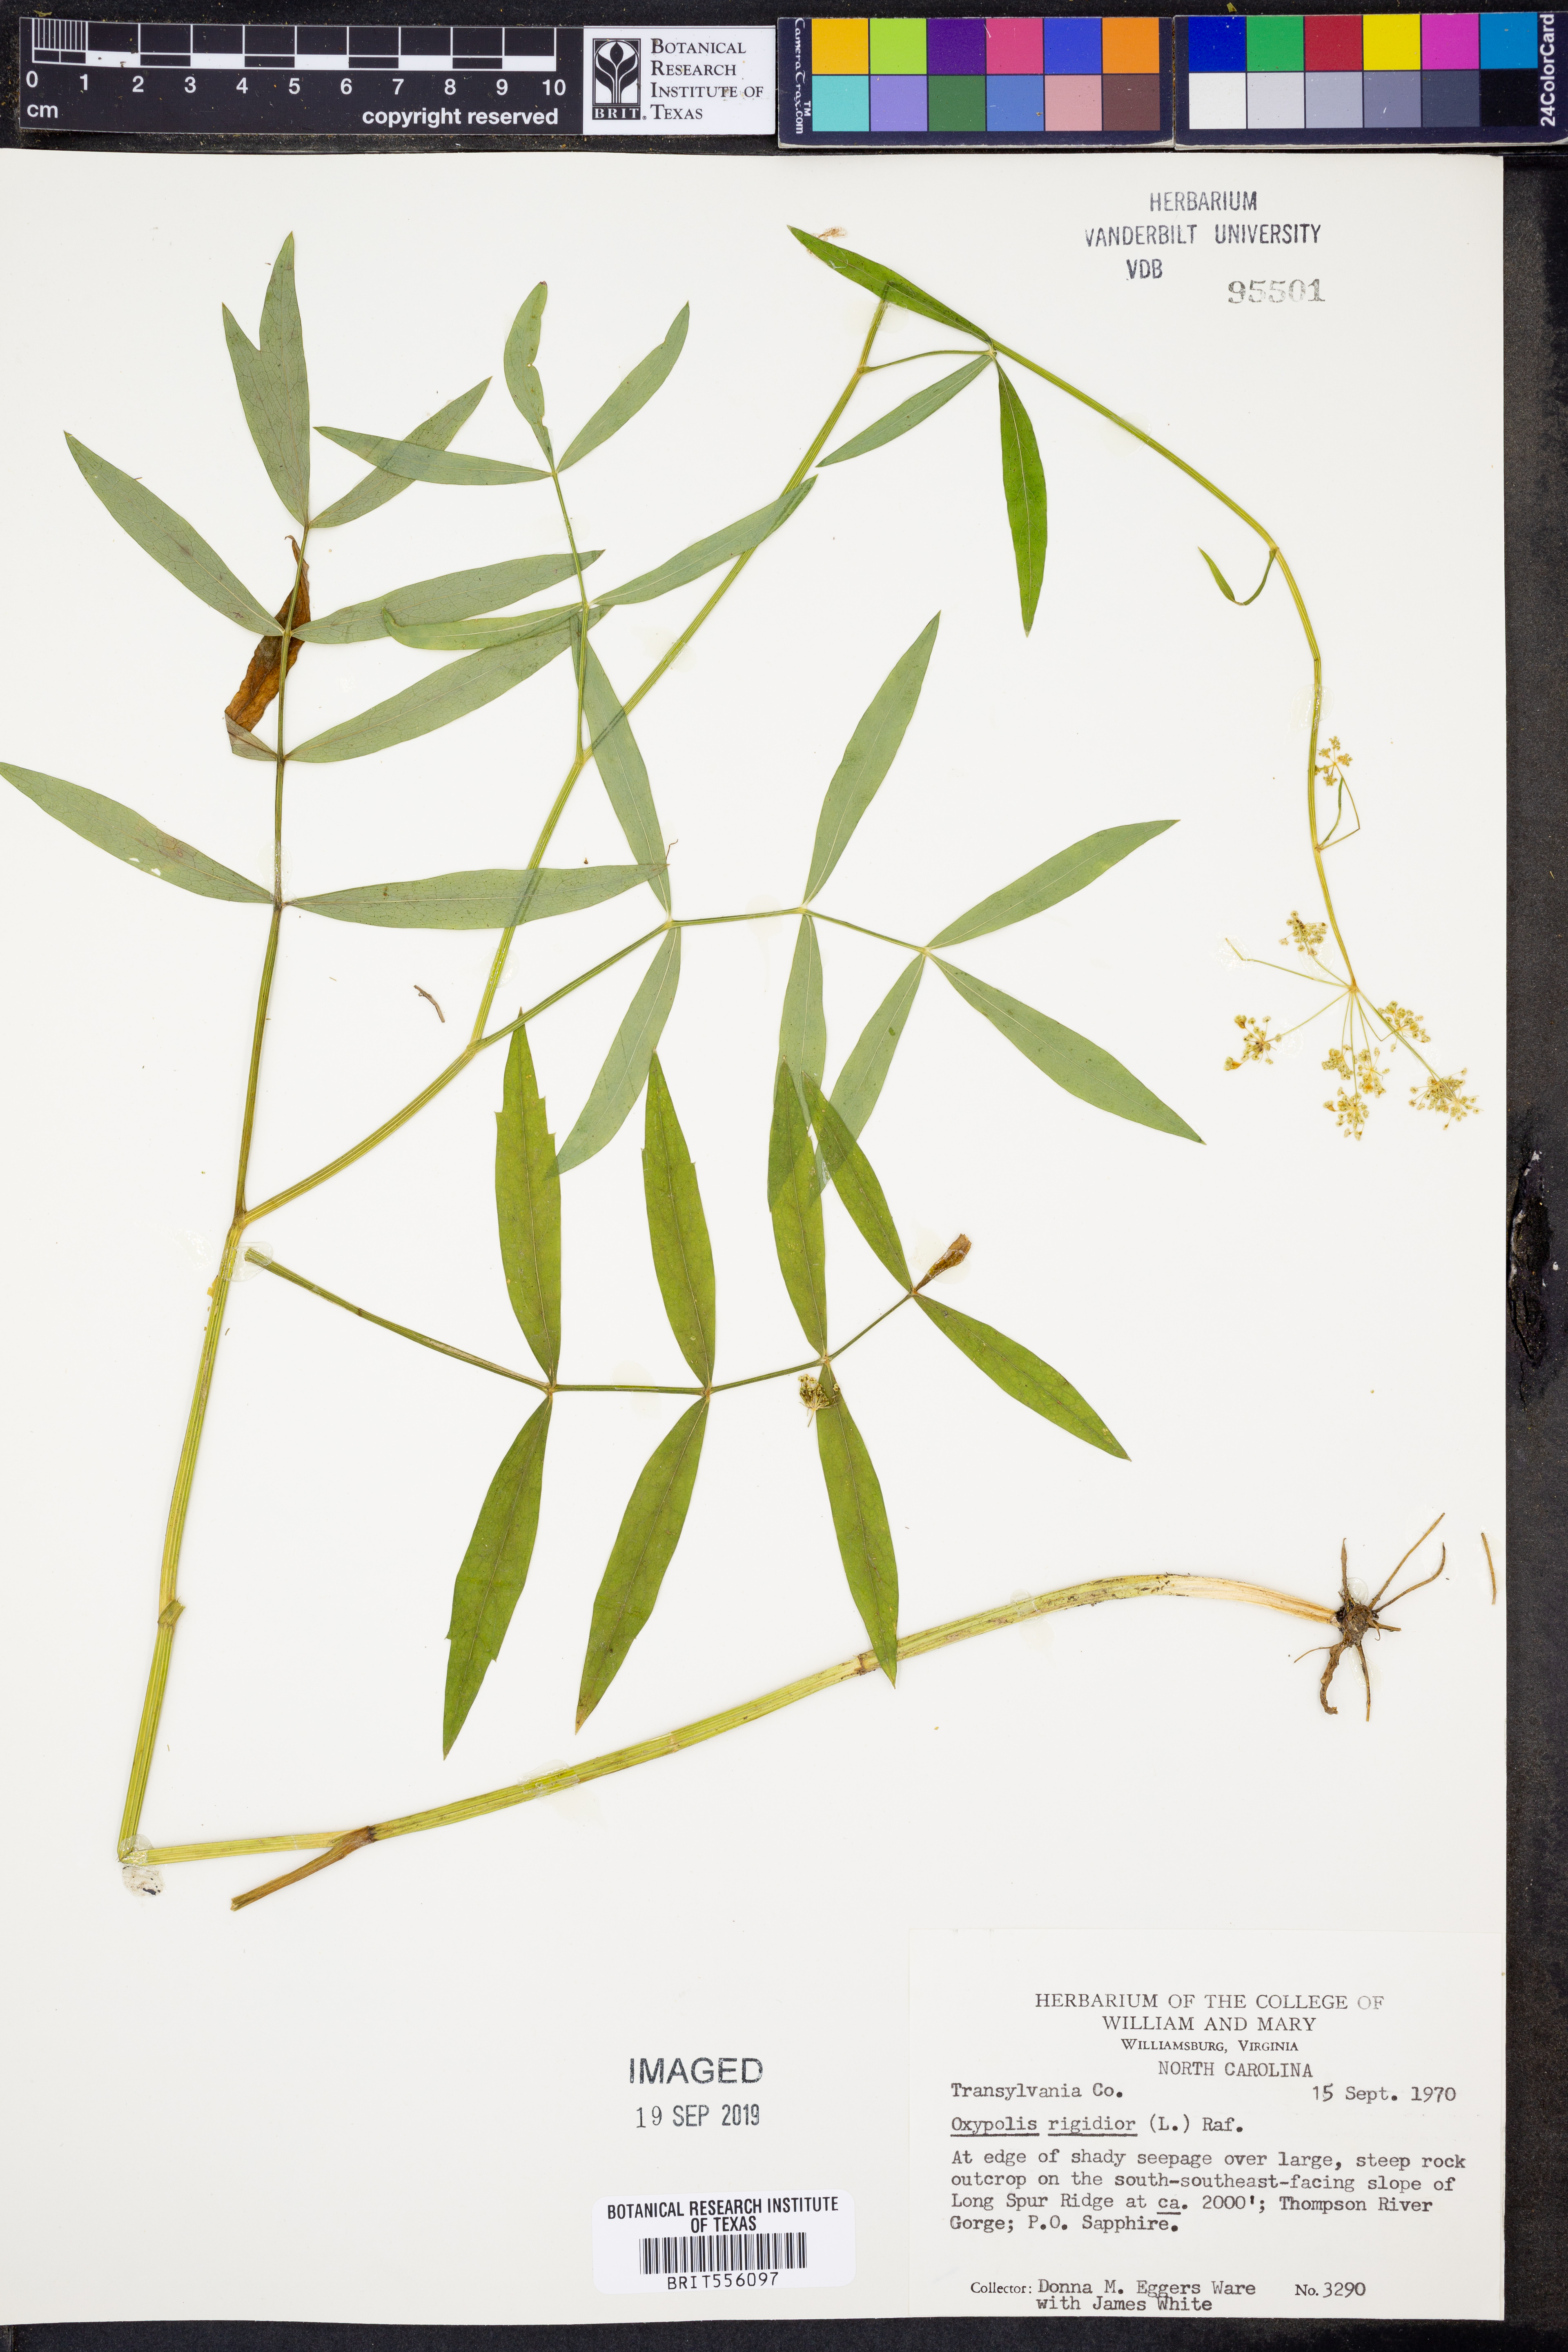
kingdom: Plantae
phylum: Tracheophyta
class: Magnoliopsida
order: Apiales
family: Apiaceae
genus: Oxypolis
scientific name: Oxypolis rigidior
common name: Cowbane
